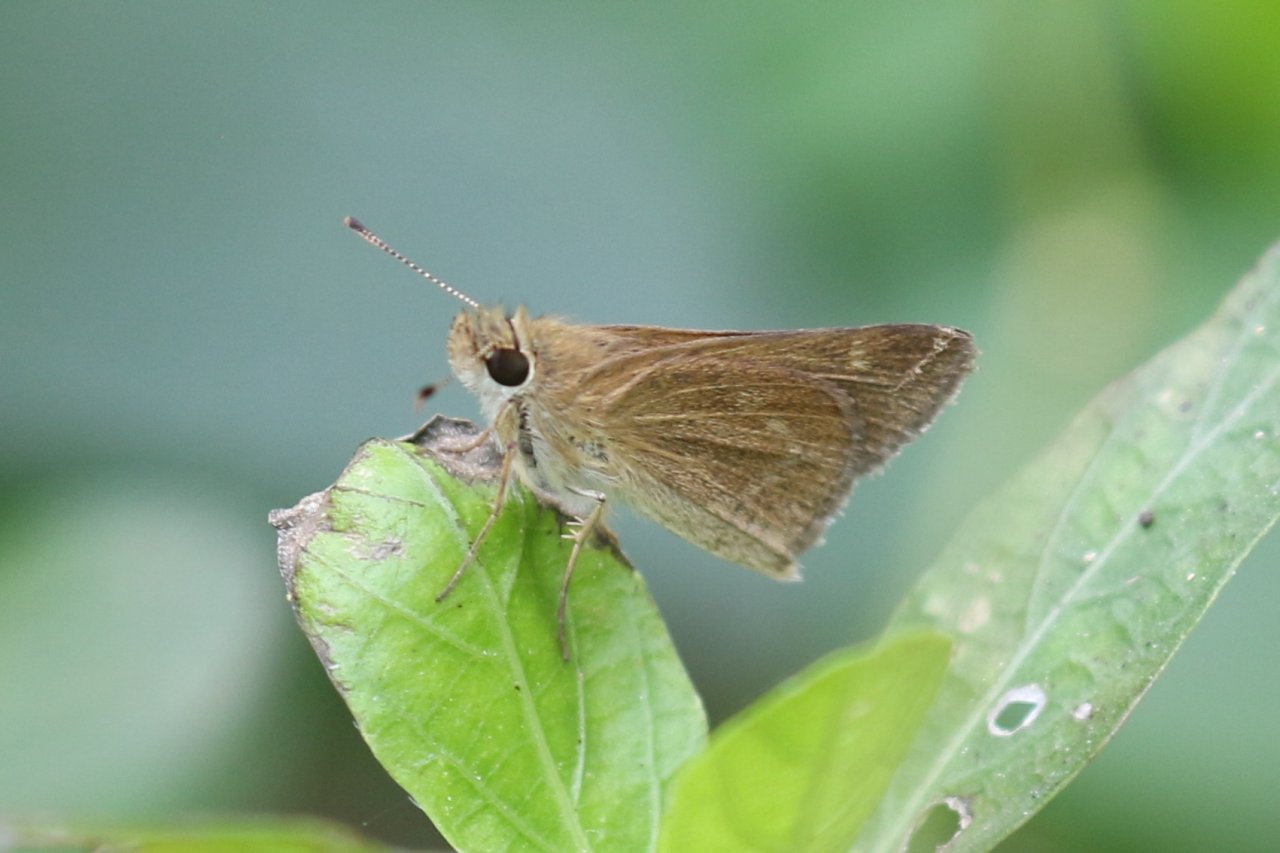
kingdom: Animalia
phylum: Arthropoda
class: Insecta
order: Lepidoptera
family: Hesperiidae
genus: Nastra
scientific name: Nastra julia
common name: Julia's Skipper
